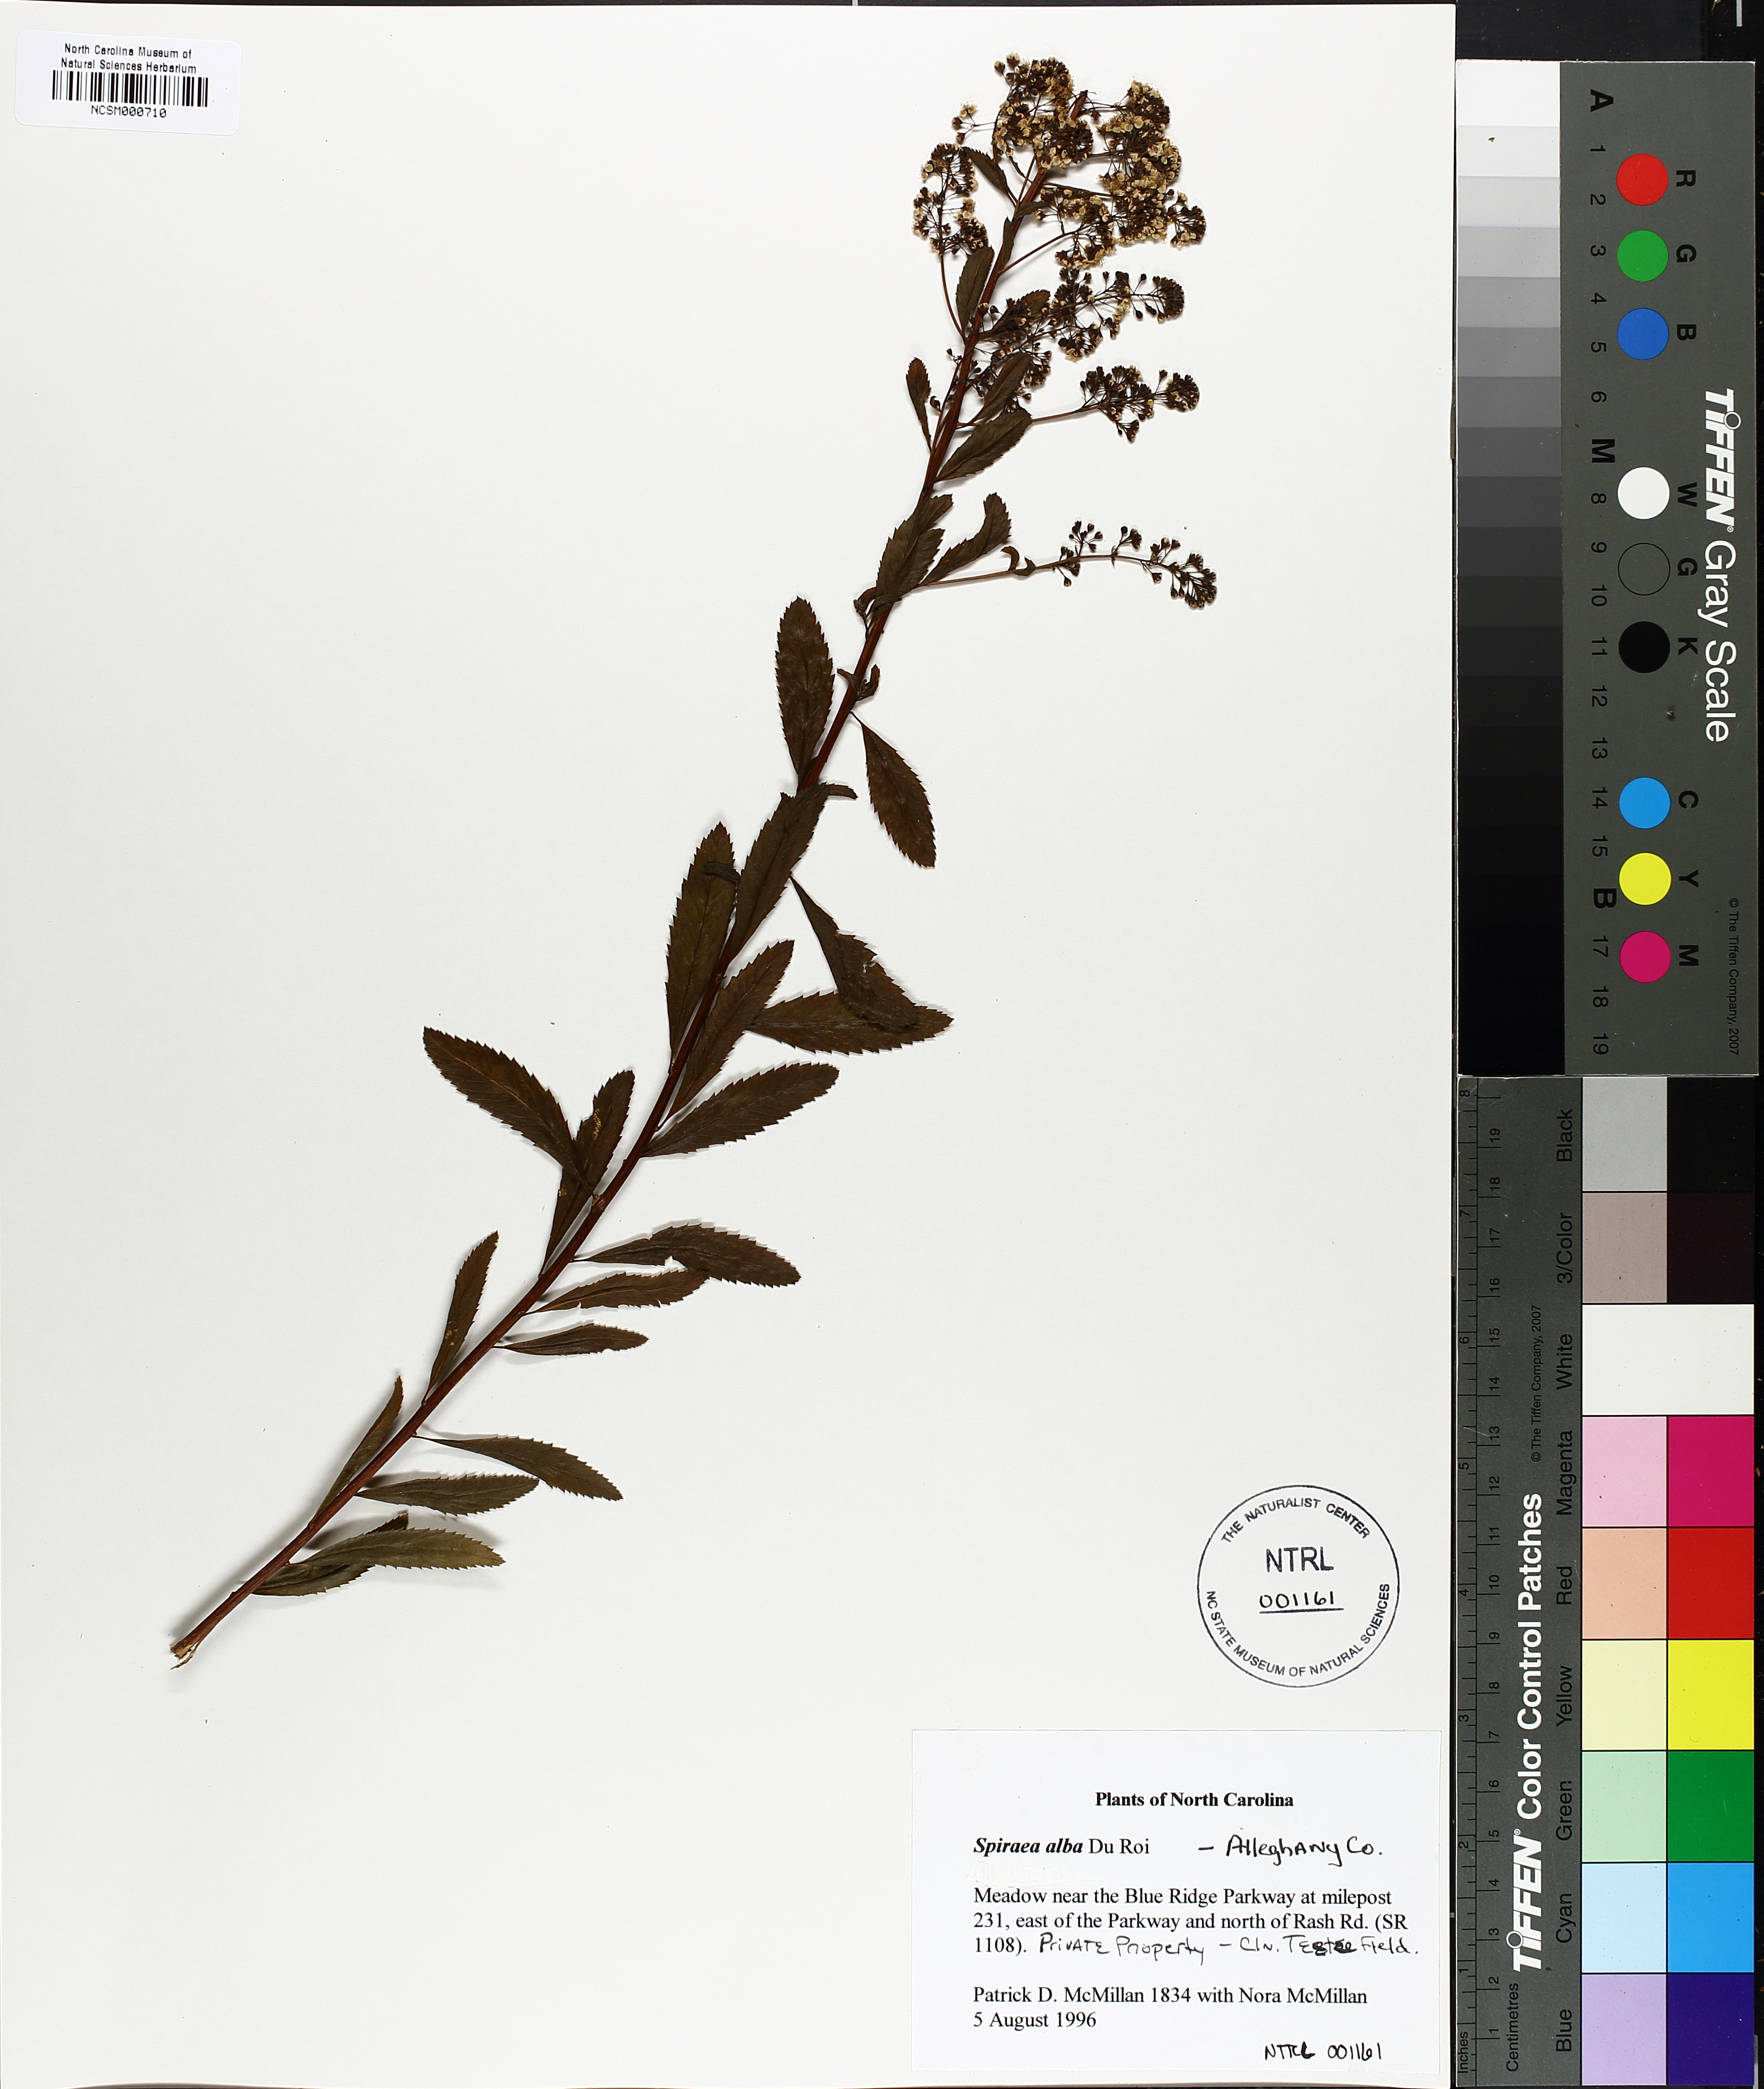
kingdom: Plantae
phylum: Tracheophyta
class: Magnoliopsida
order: Rosales
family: Rosaceae
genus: Spiraea
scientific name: Spiraea alba
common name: Pale bridewort
